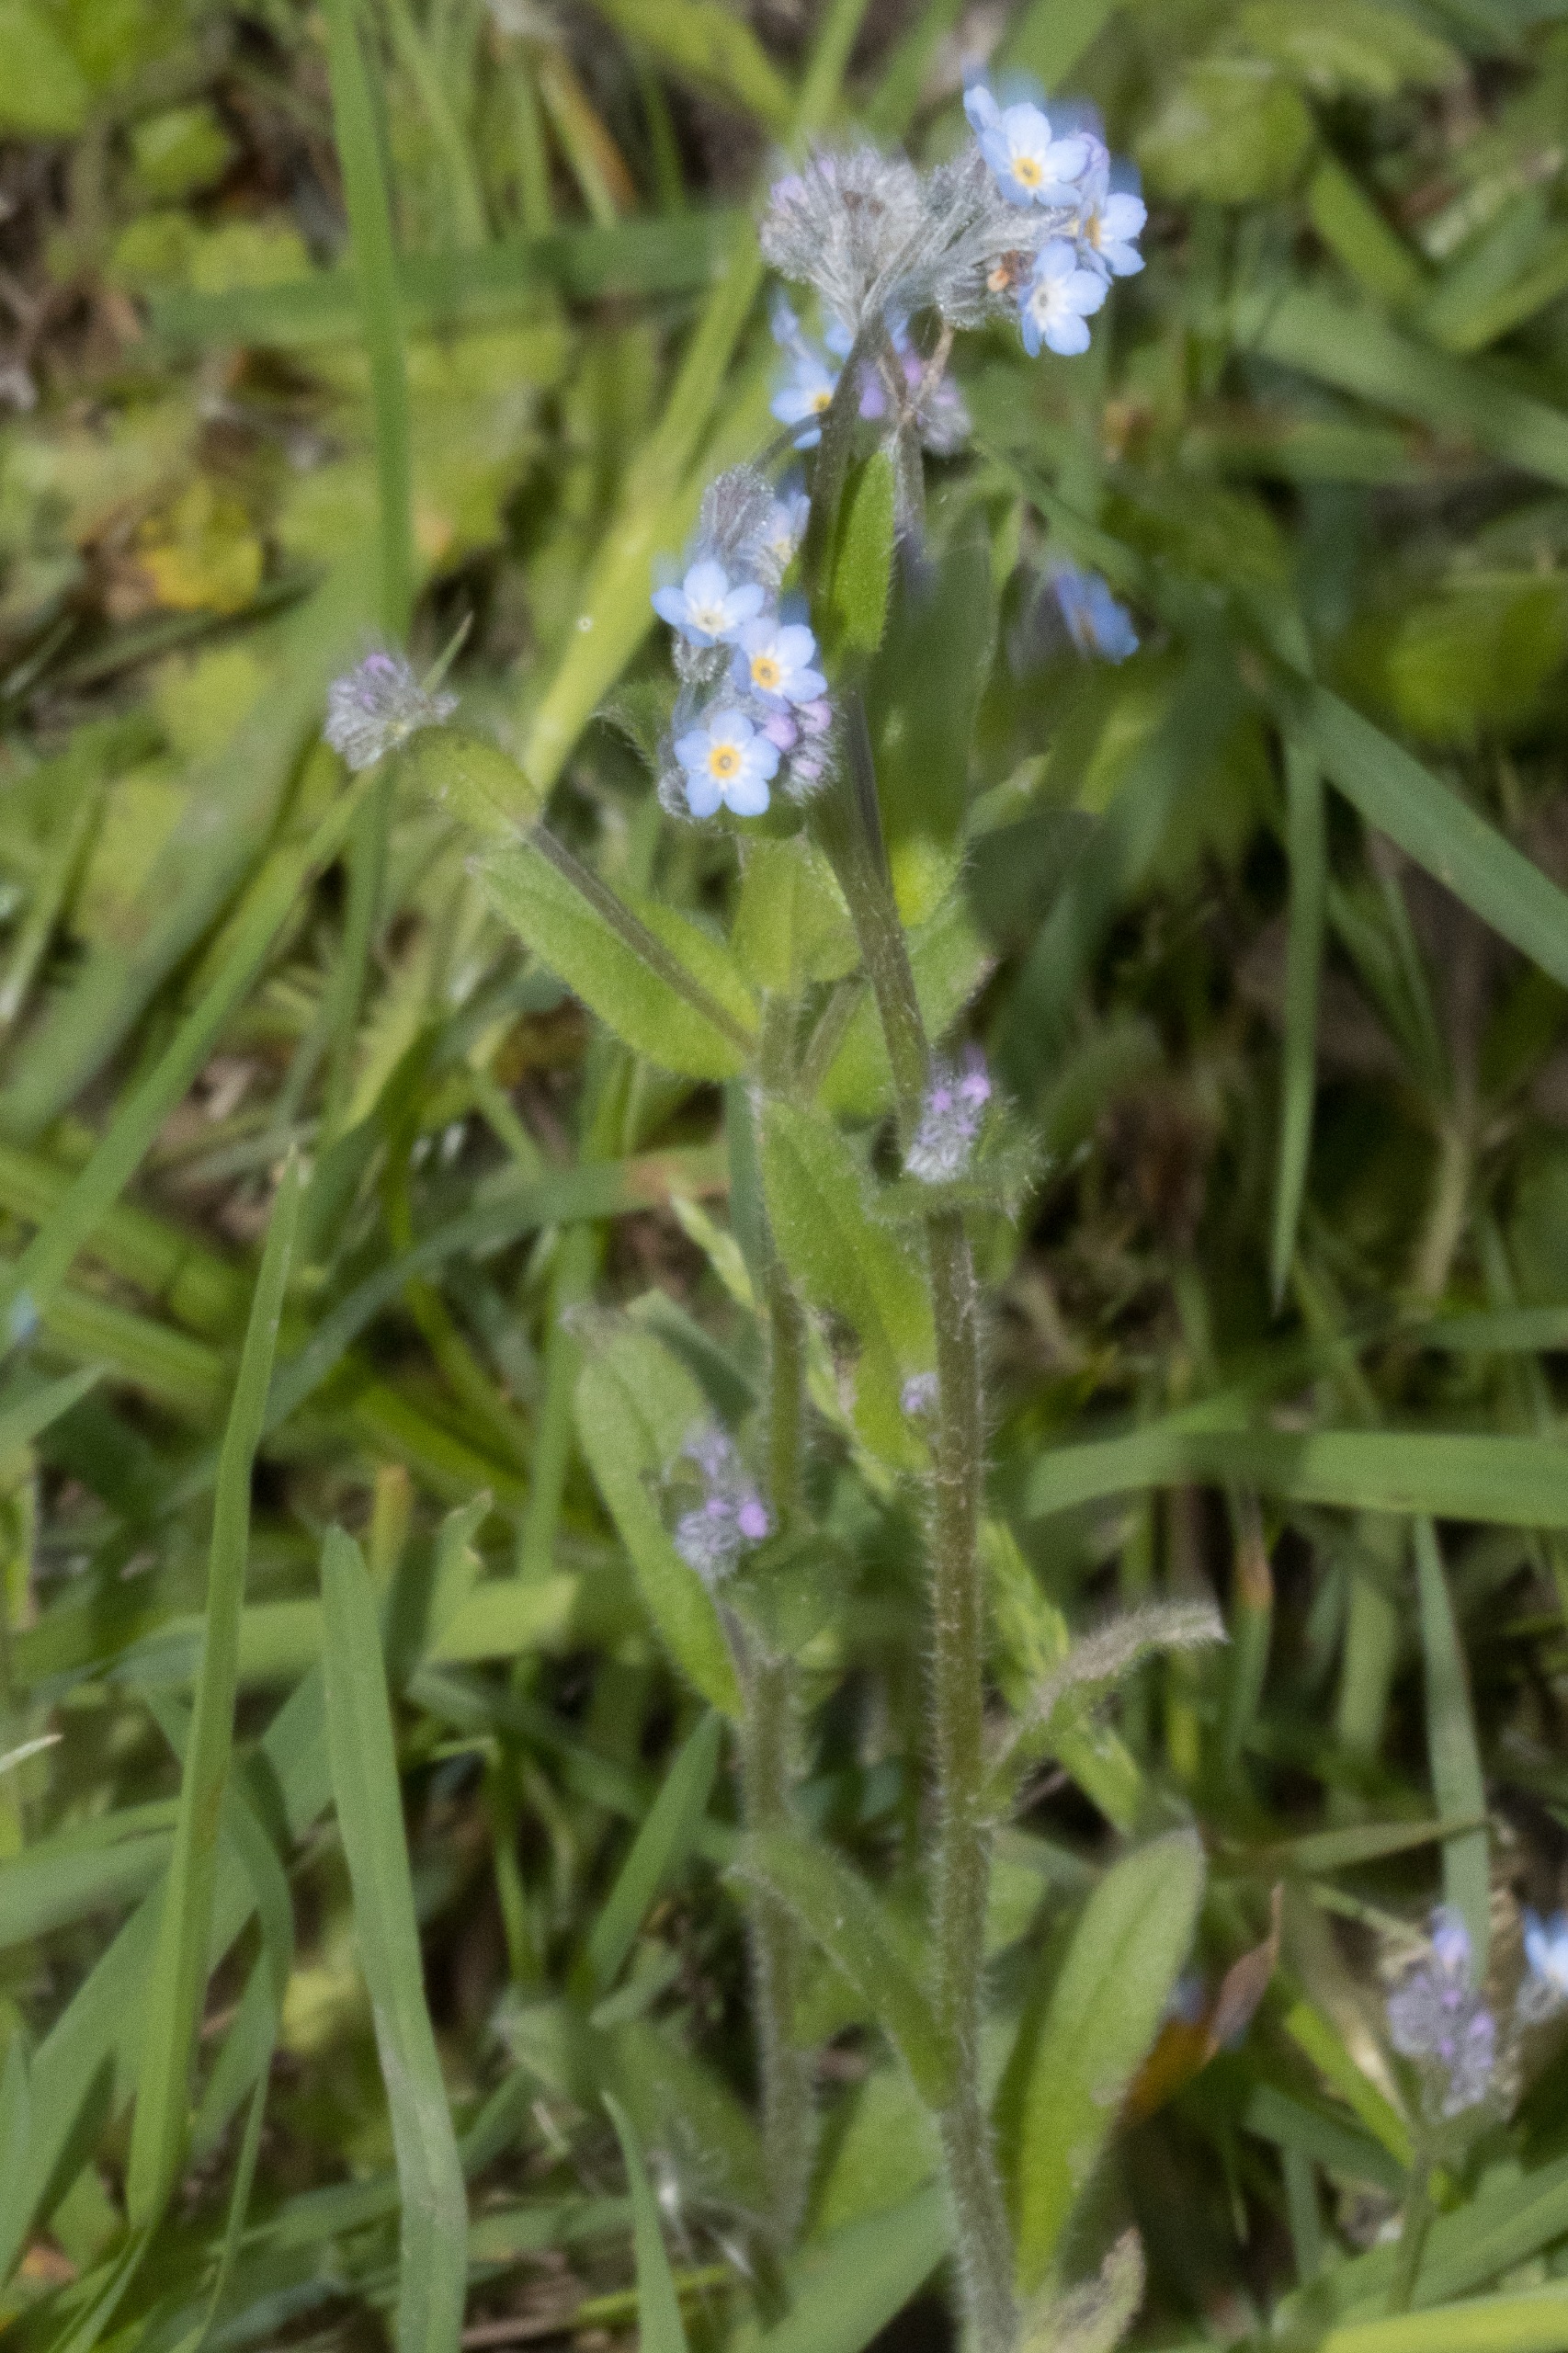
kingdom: Plantae
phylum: Tracheophyta
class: Magnoliopsida
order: Boraginales
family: Boraginaceae
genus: Myosotis
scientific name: Myosotis arvensis
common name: Mark-forglemmigej
